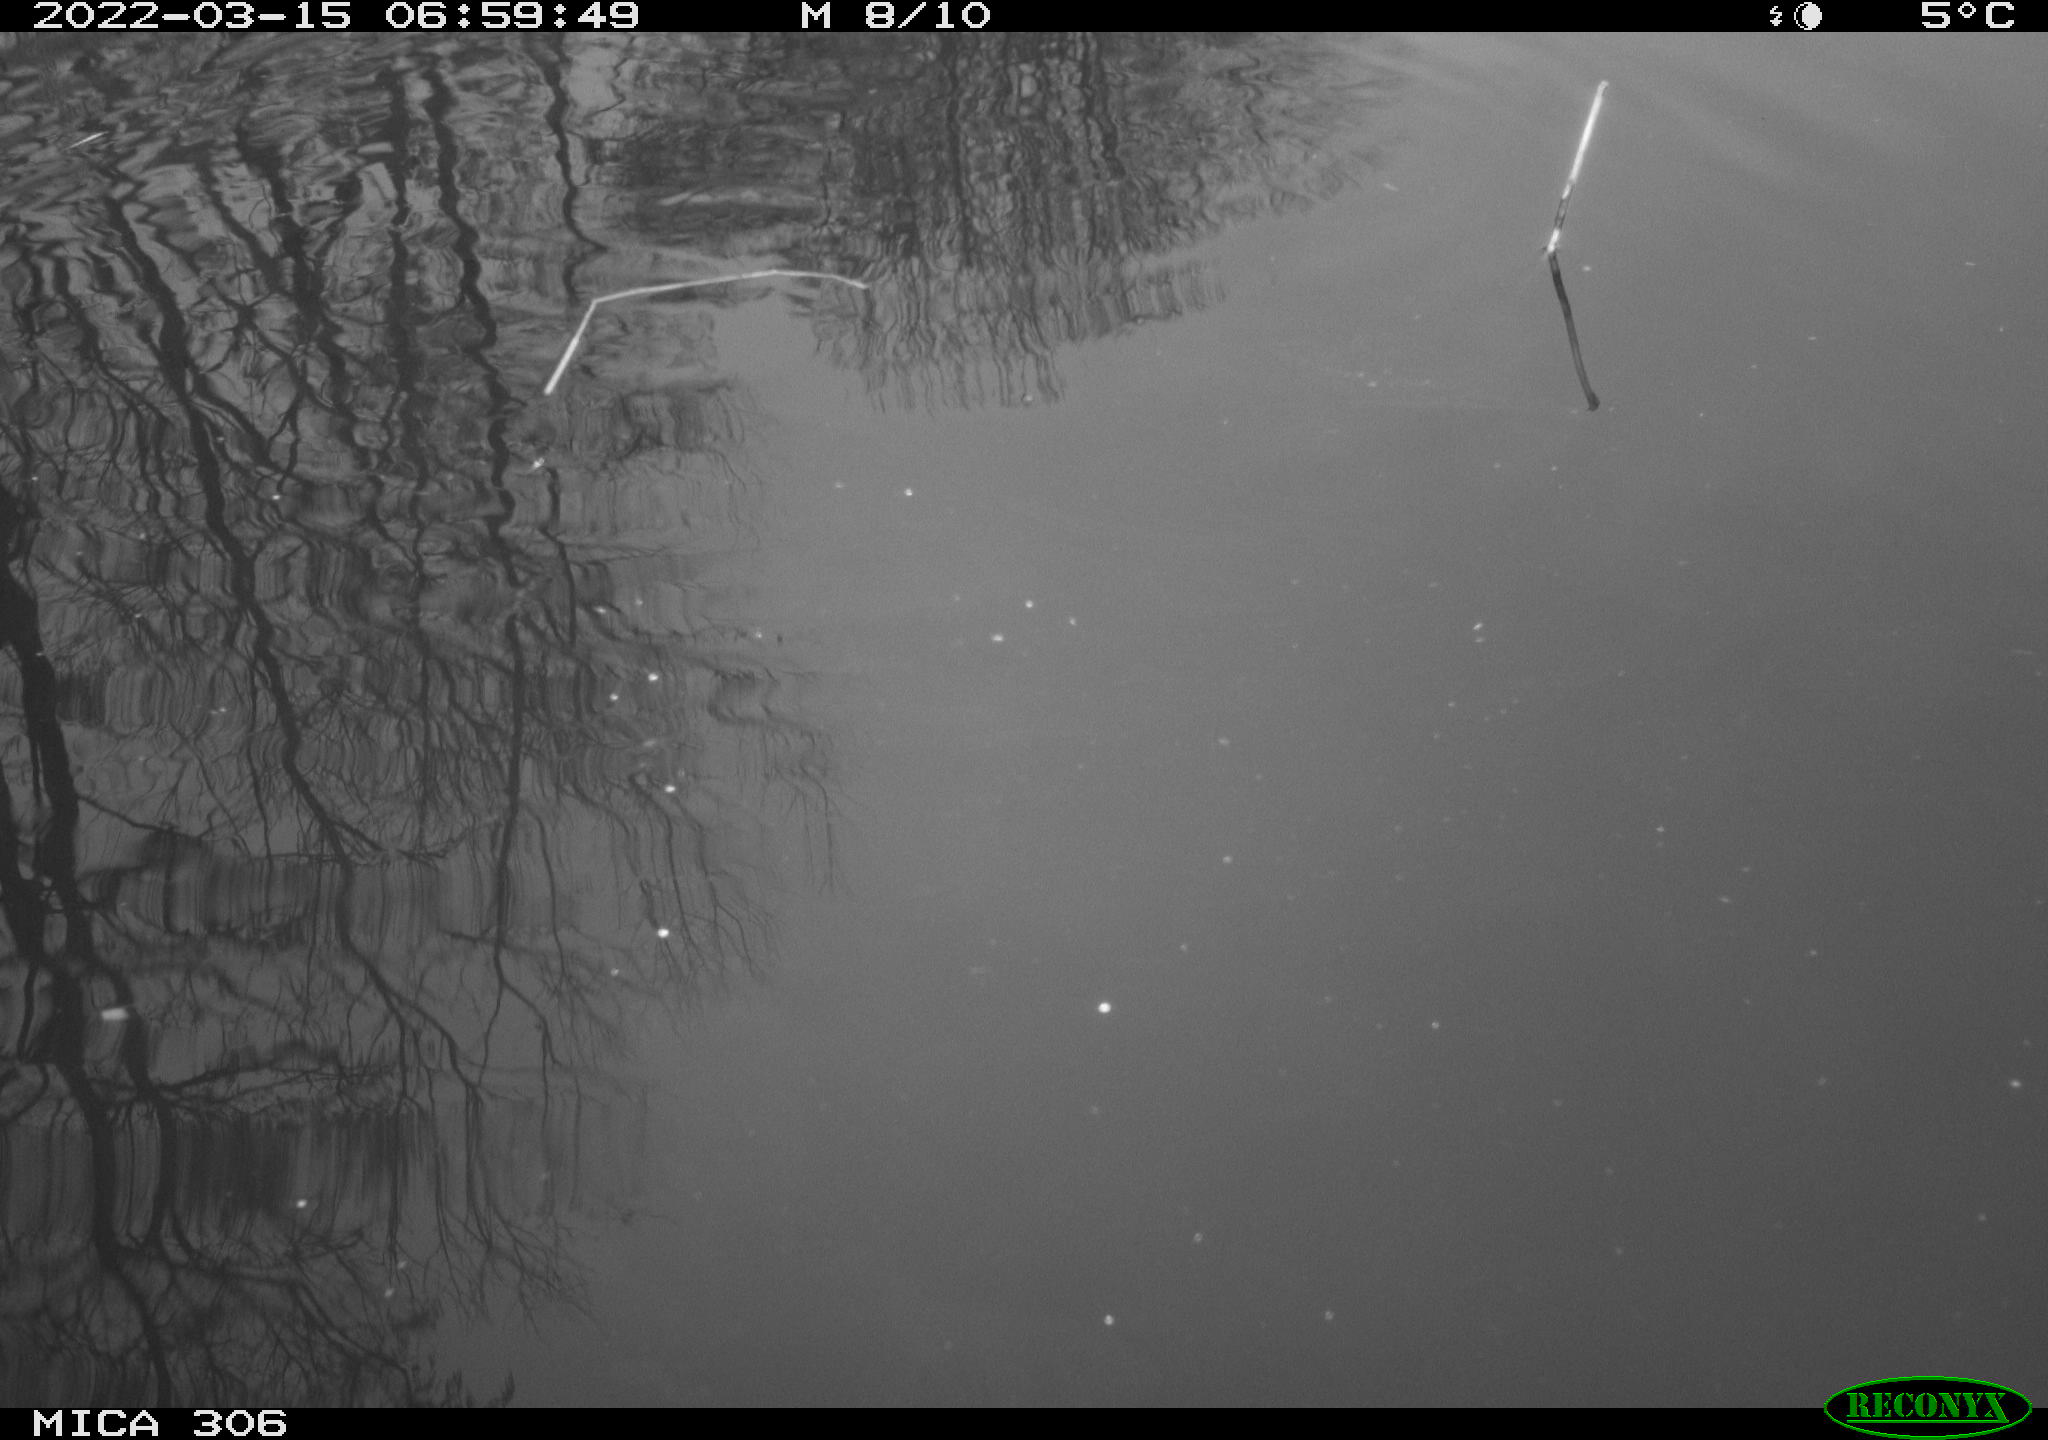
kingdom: Animalia
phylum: Chordata
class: Aves
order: Gruiformes
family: Rallidae
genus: Gallinula
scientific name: Gallinula chloropus
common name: Common moorhen
